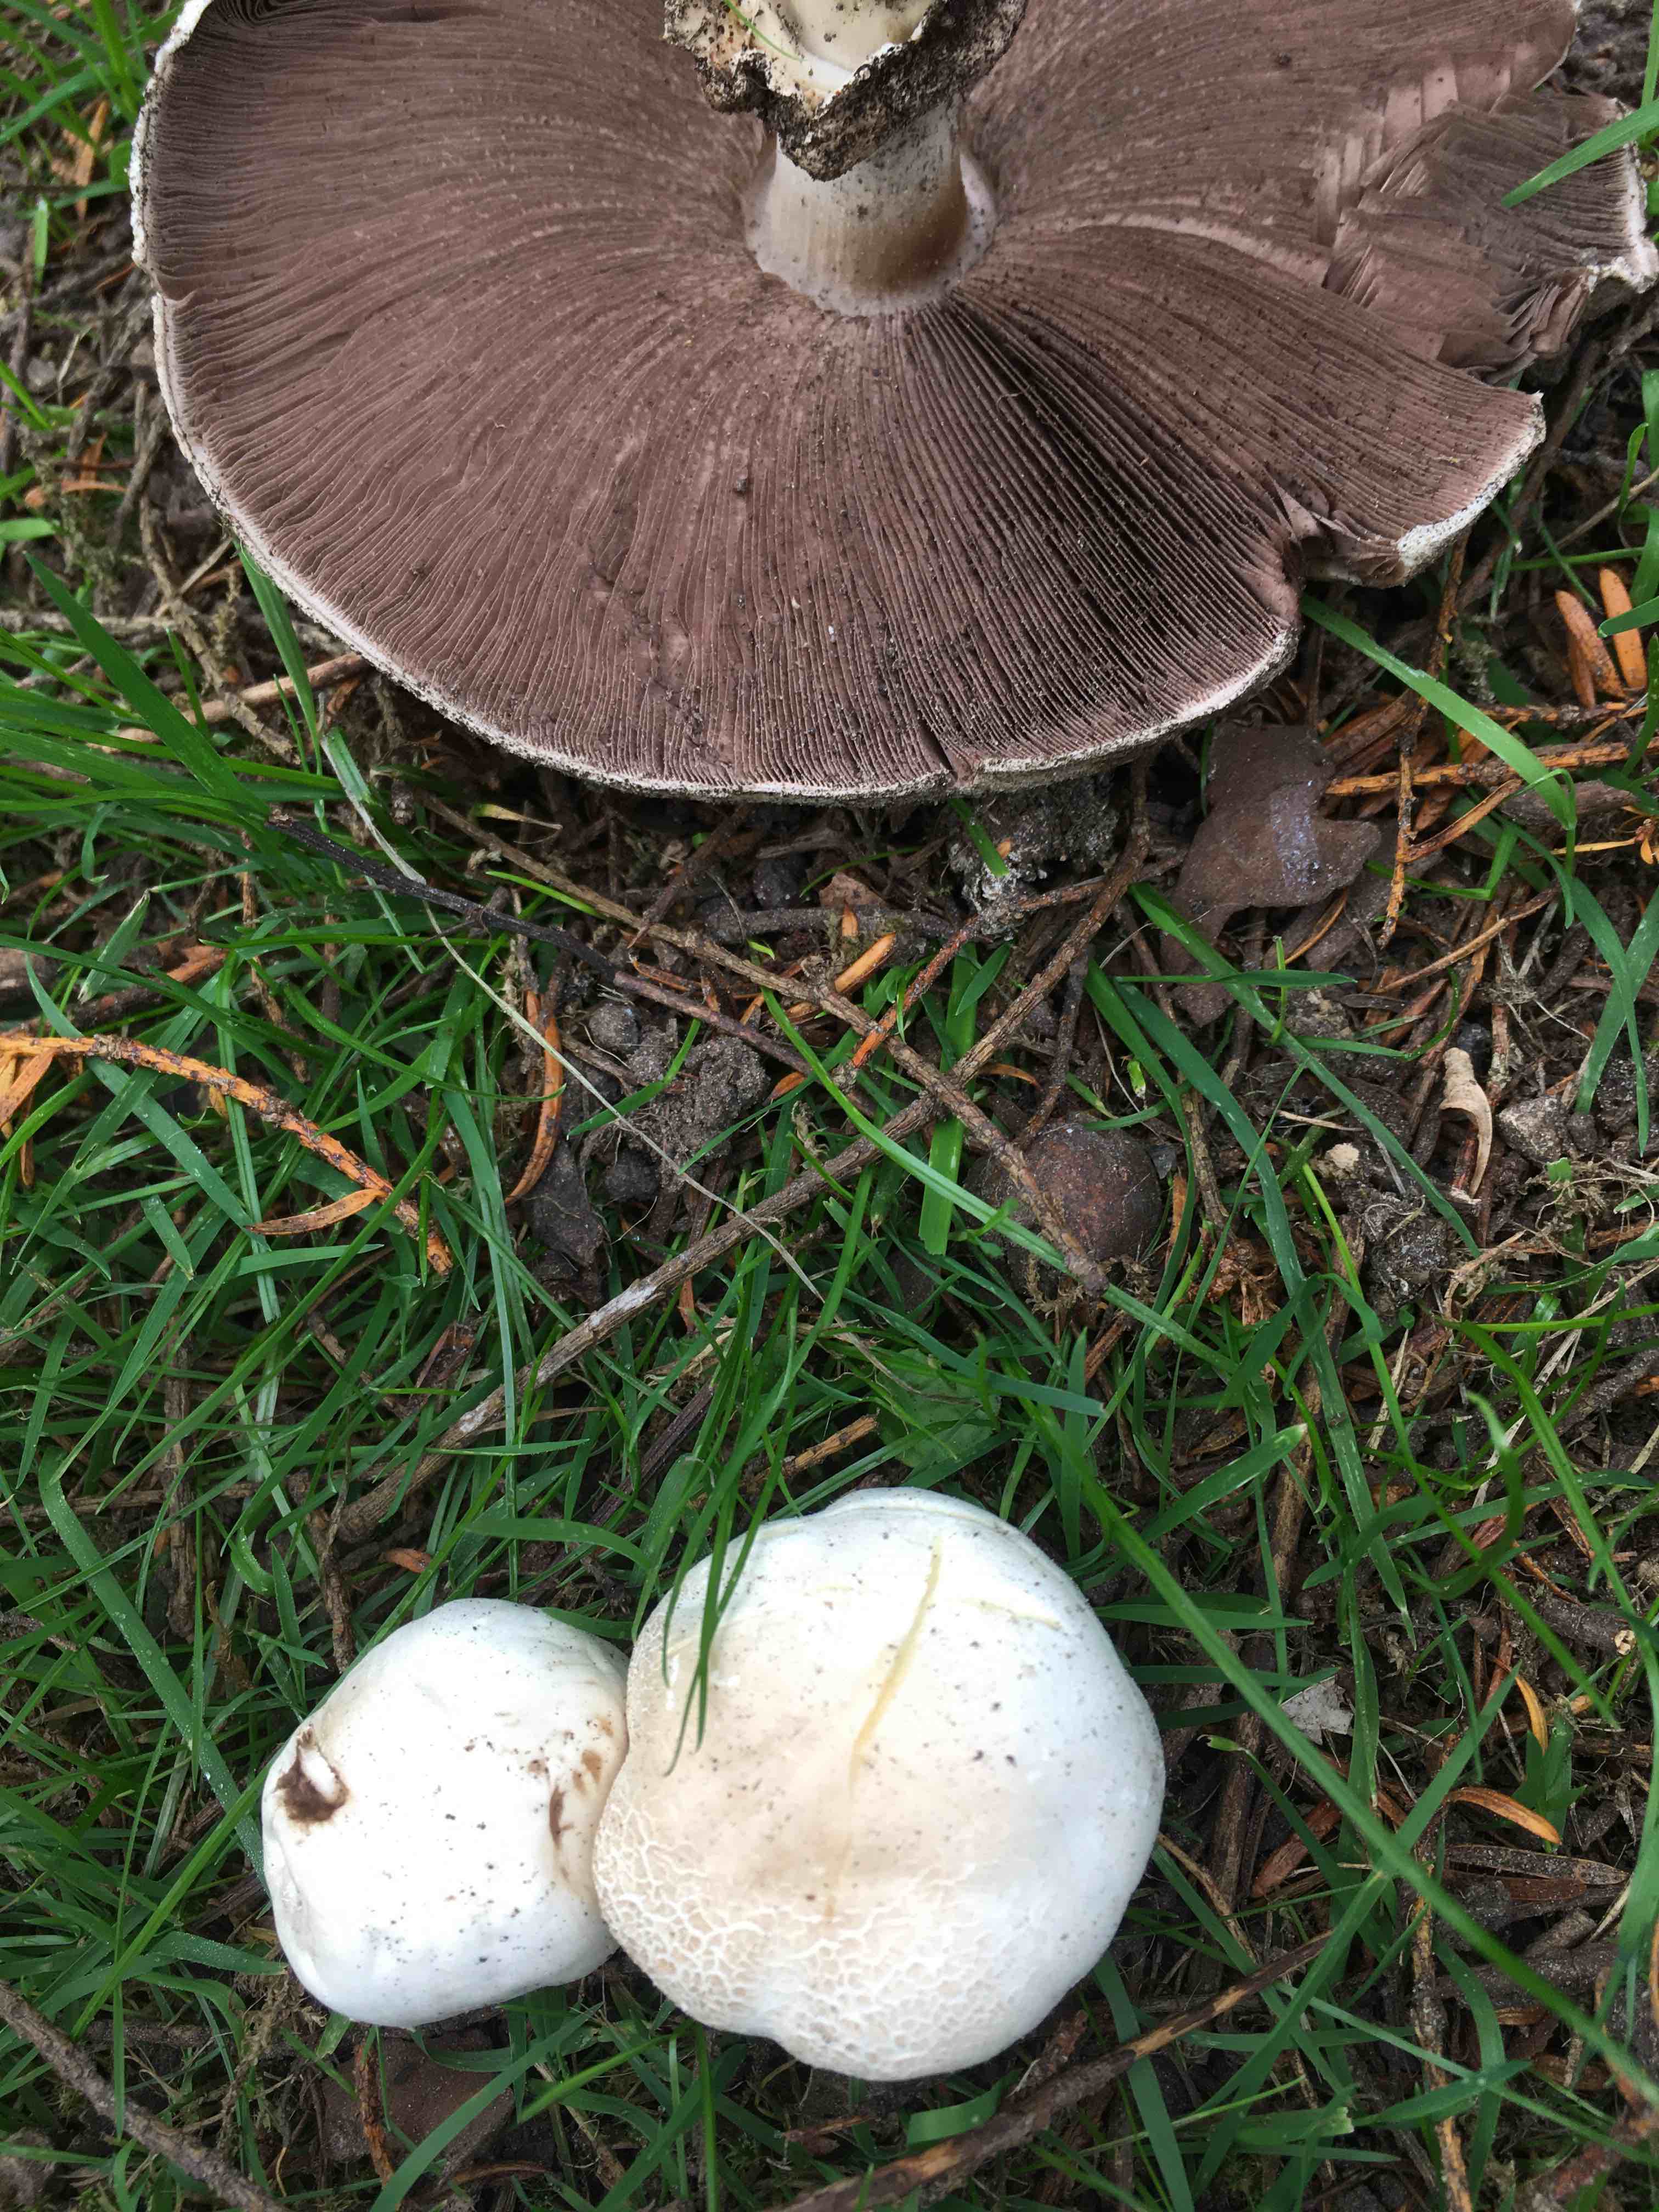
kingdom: Fungi
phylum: Basidiomycota
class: Agaricomycetes
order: Agaricales
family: Agaricaceae
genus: Agaricus
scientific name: Agaricus xanthodermus
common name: karbol-champignon
